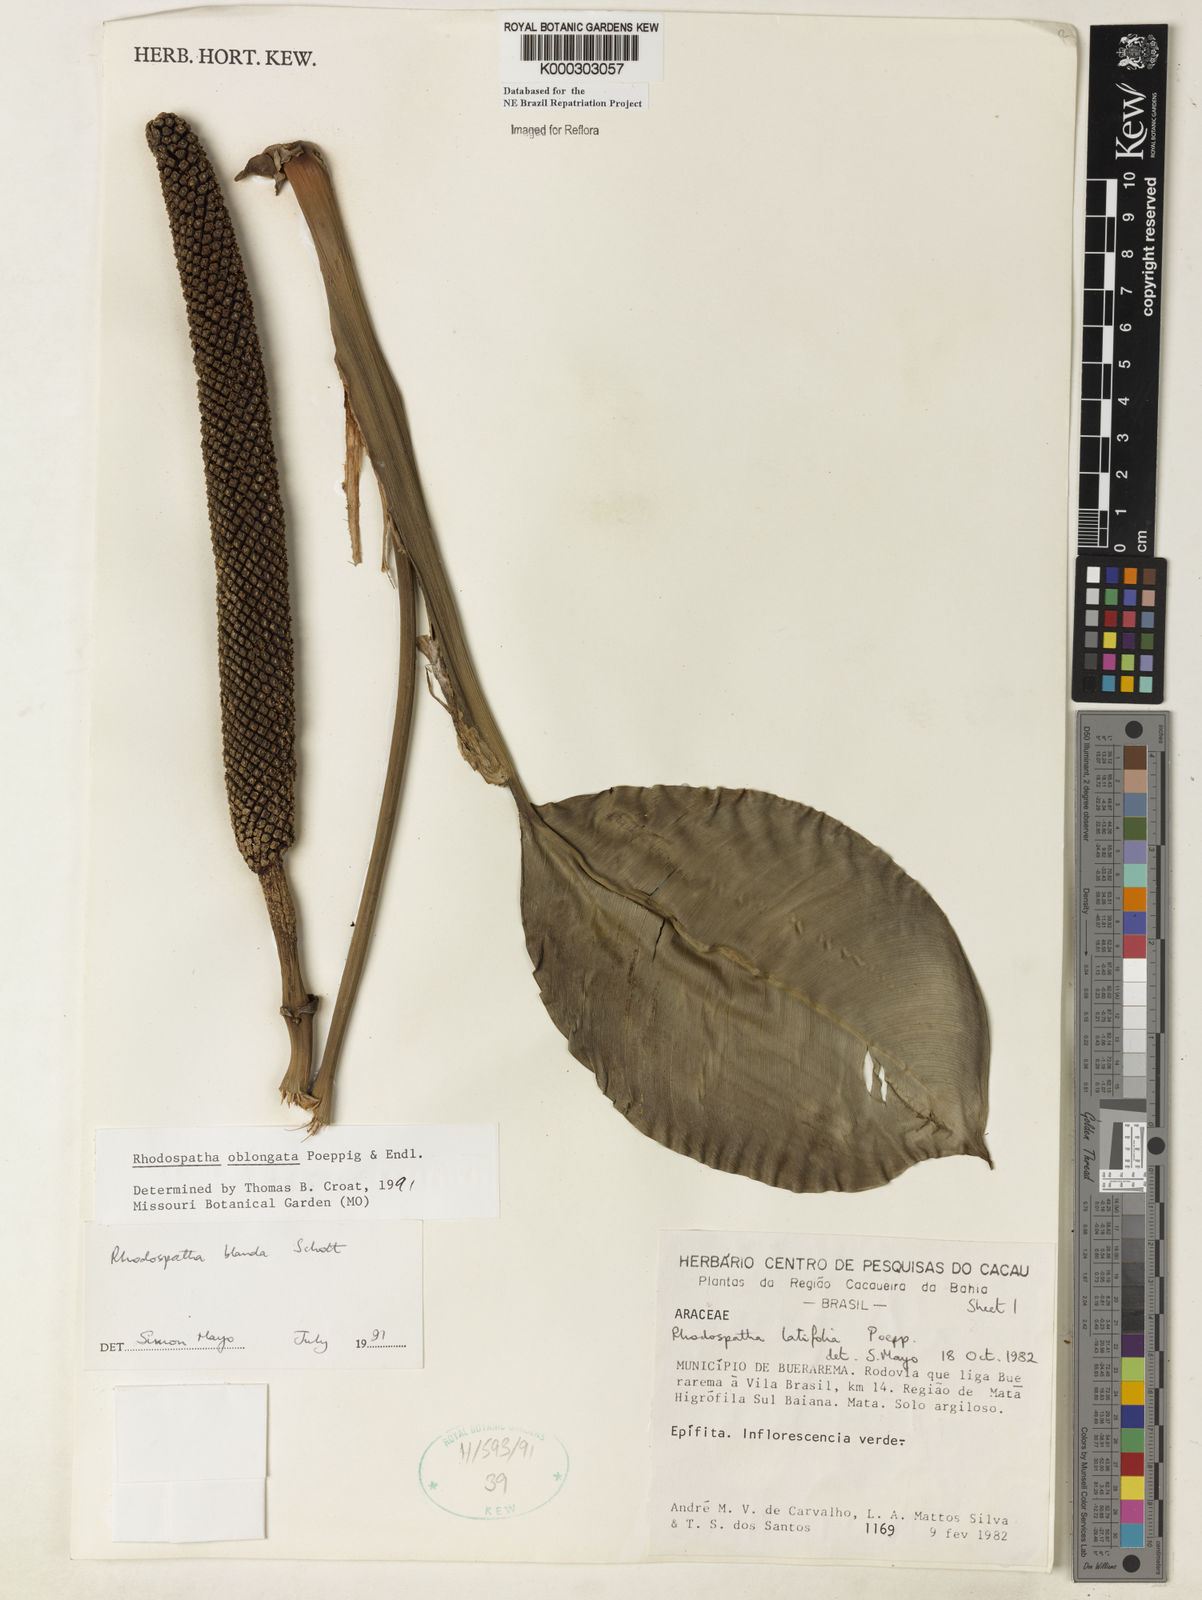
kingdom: Plantae
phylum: Tracheophyta
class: Liliopsida
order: Alismatales
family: Araceae
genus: Rhodospatha
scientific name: Rhodospatha oblongata
